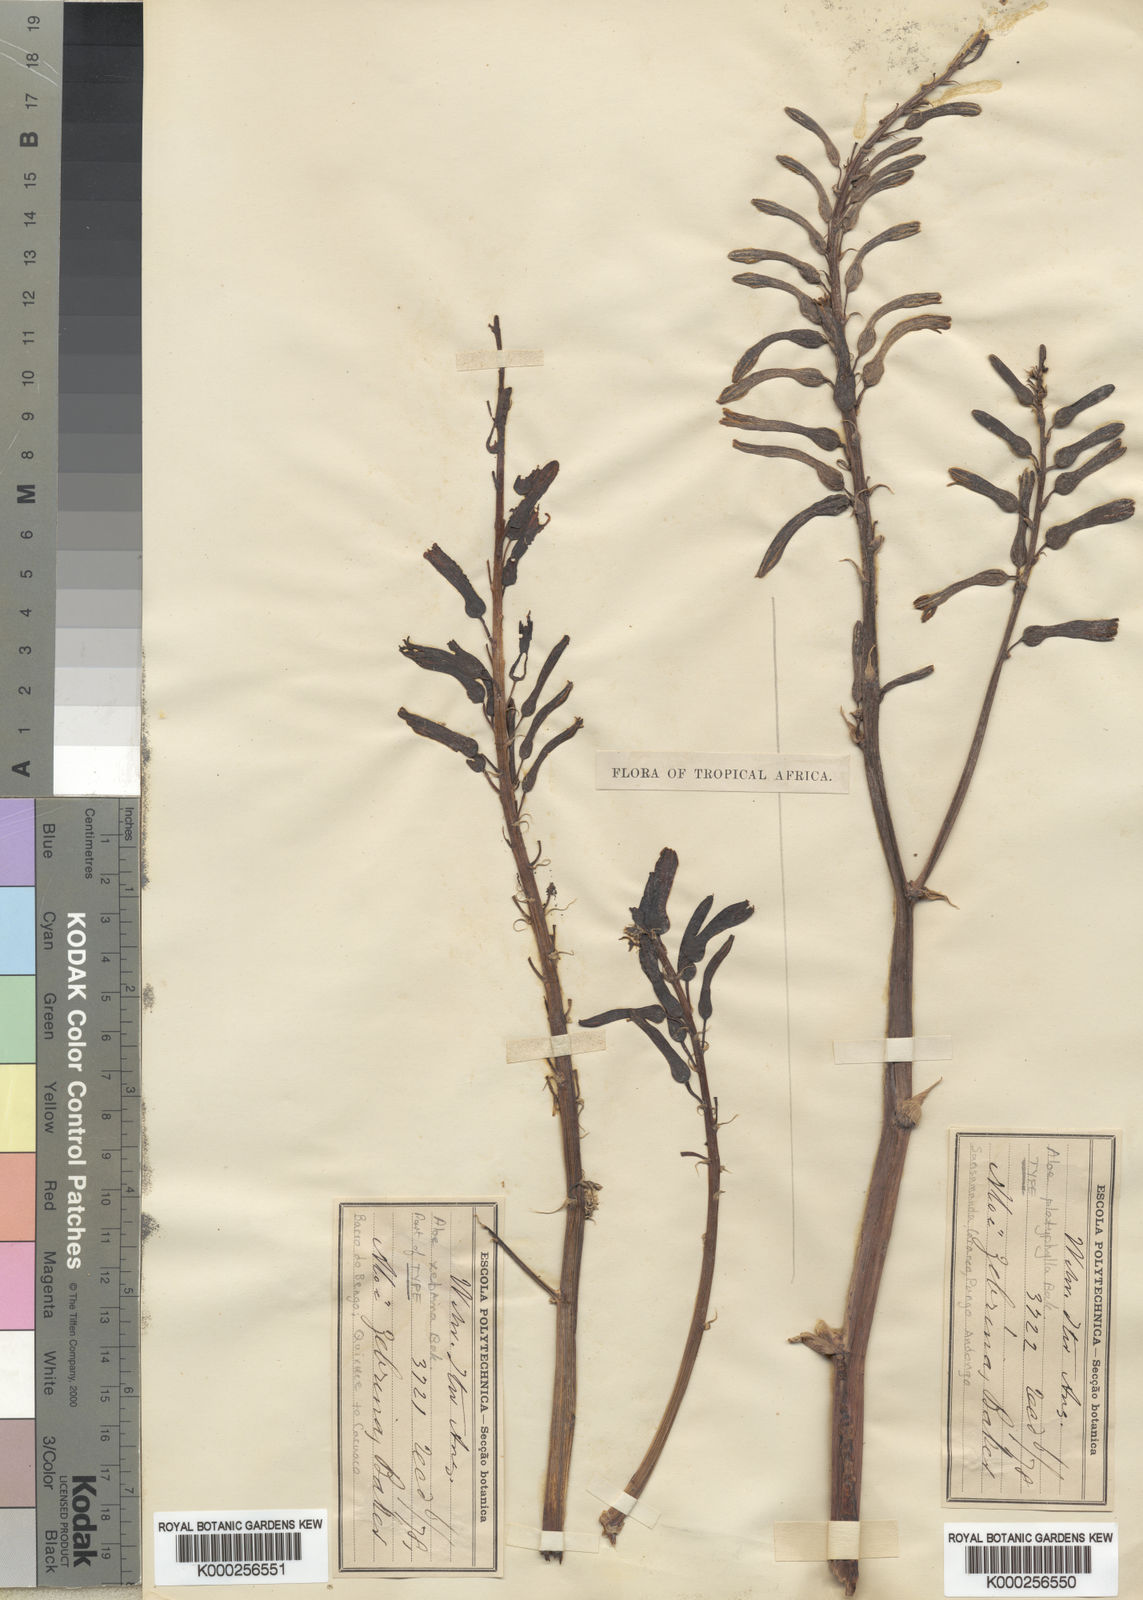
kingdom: Plantae
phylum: Tracheophyta
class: Liliopsida
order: Asparagales
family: Asphodelaceae
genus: Aloe
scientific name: Aloe zebrina
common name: Zebra-leaf aloe
